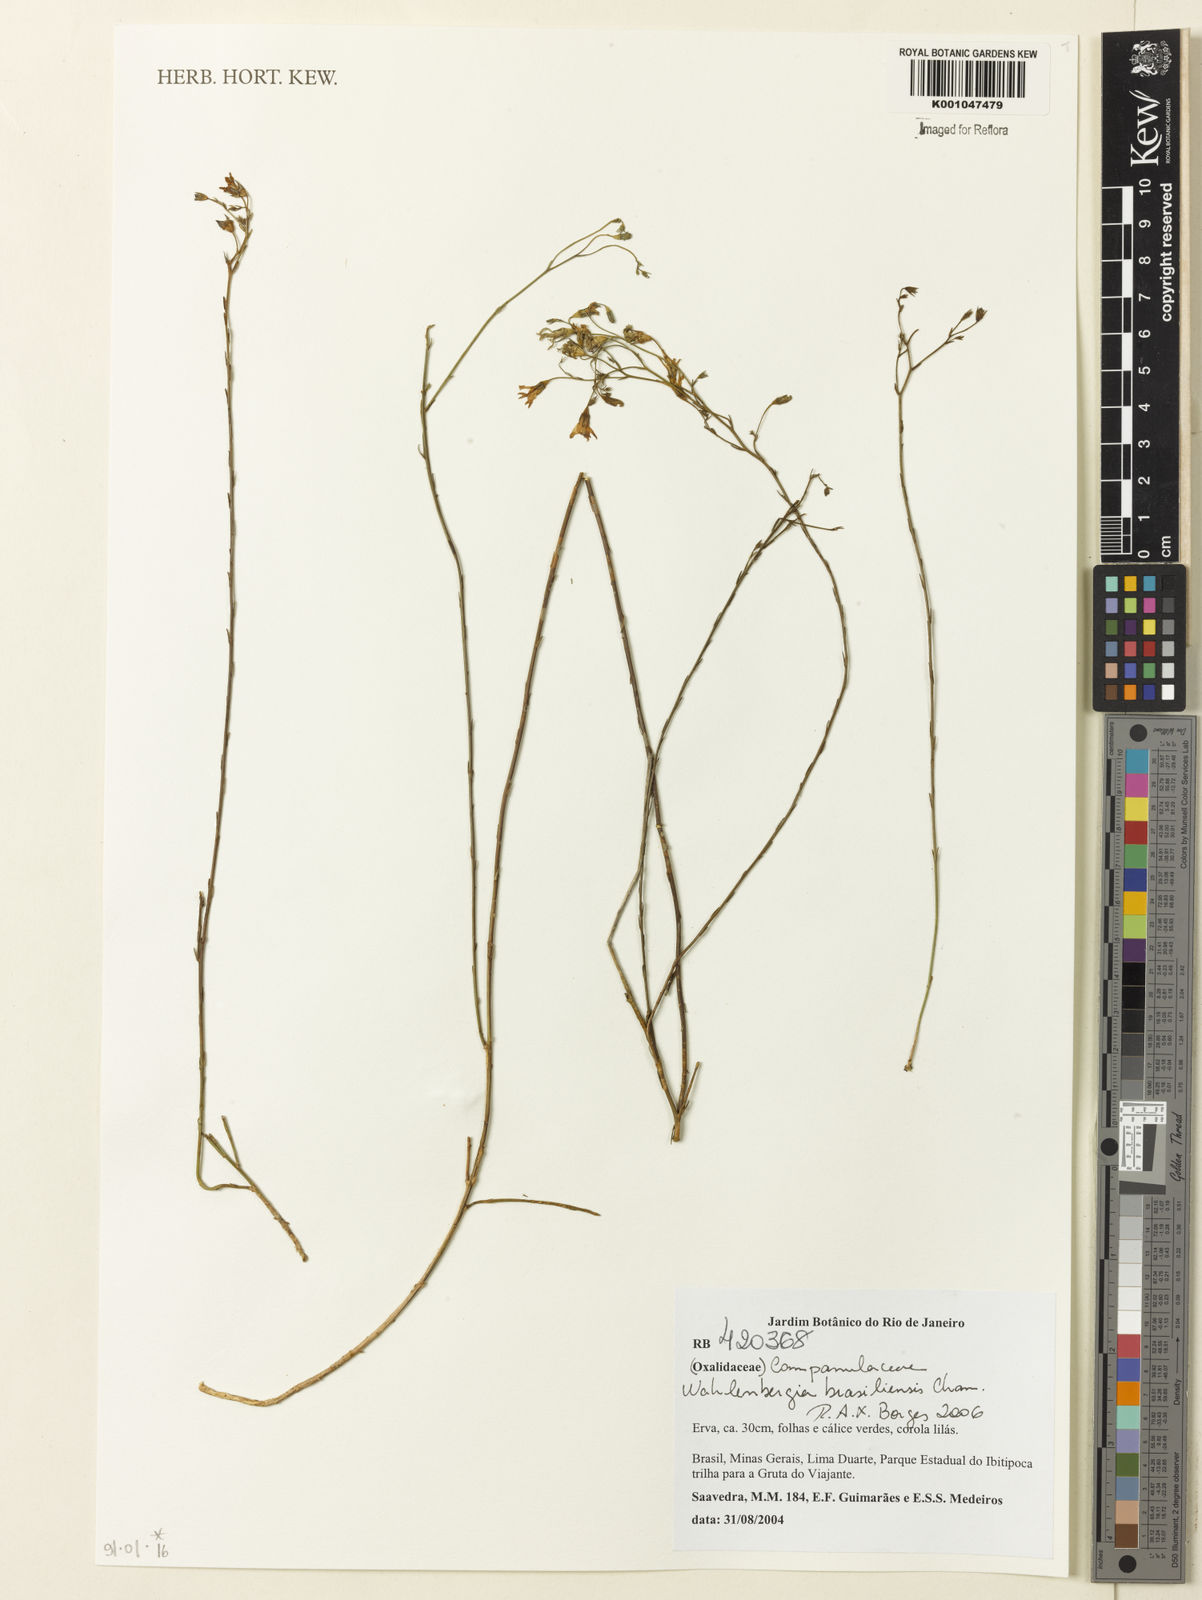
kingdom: Plantae
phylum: Tracheophyta
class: Magnoliopsida
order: Asterales
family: Campanulaceae
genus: Wahlenbergia
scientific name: Wahlenbergia brasiliensis
